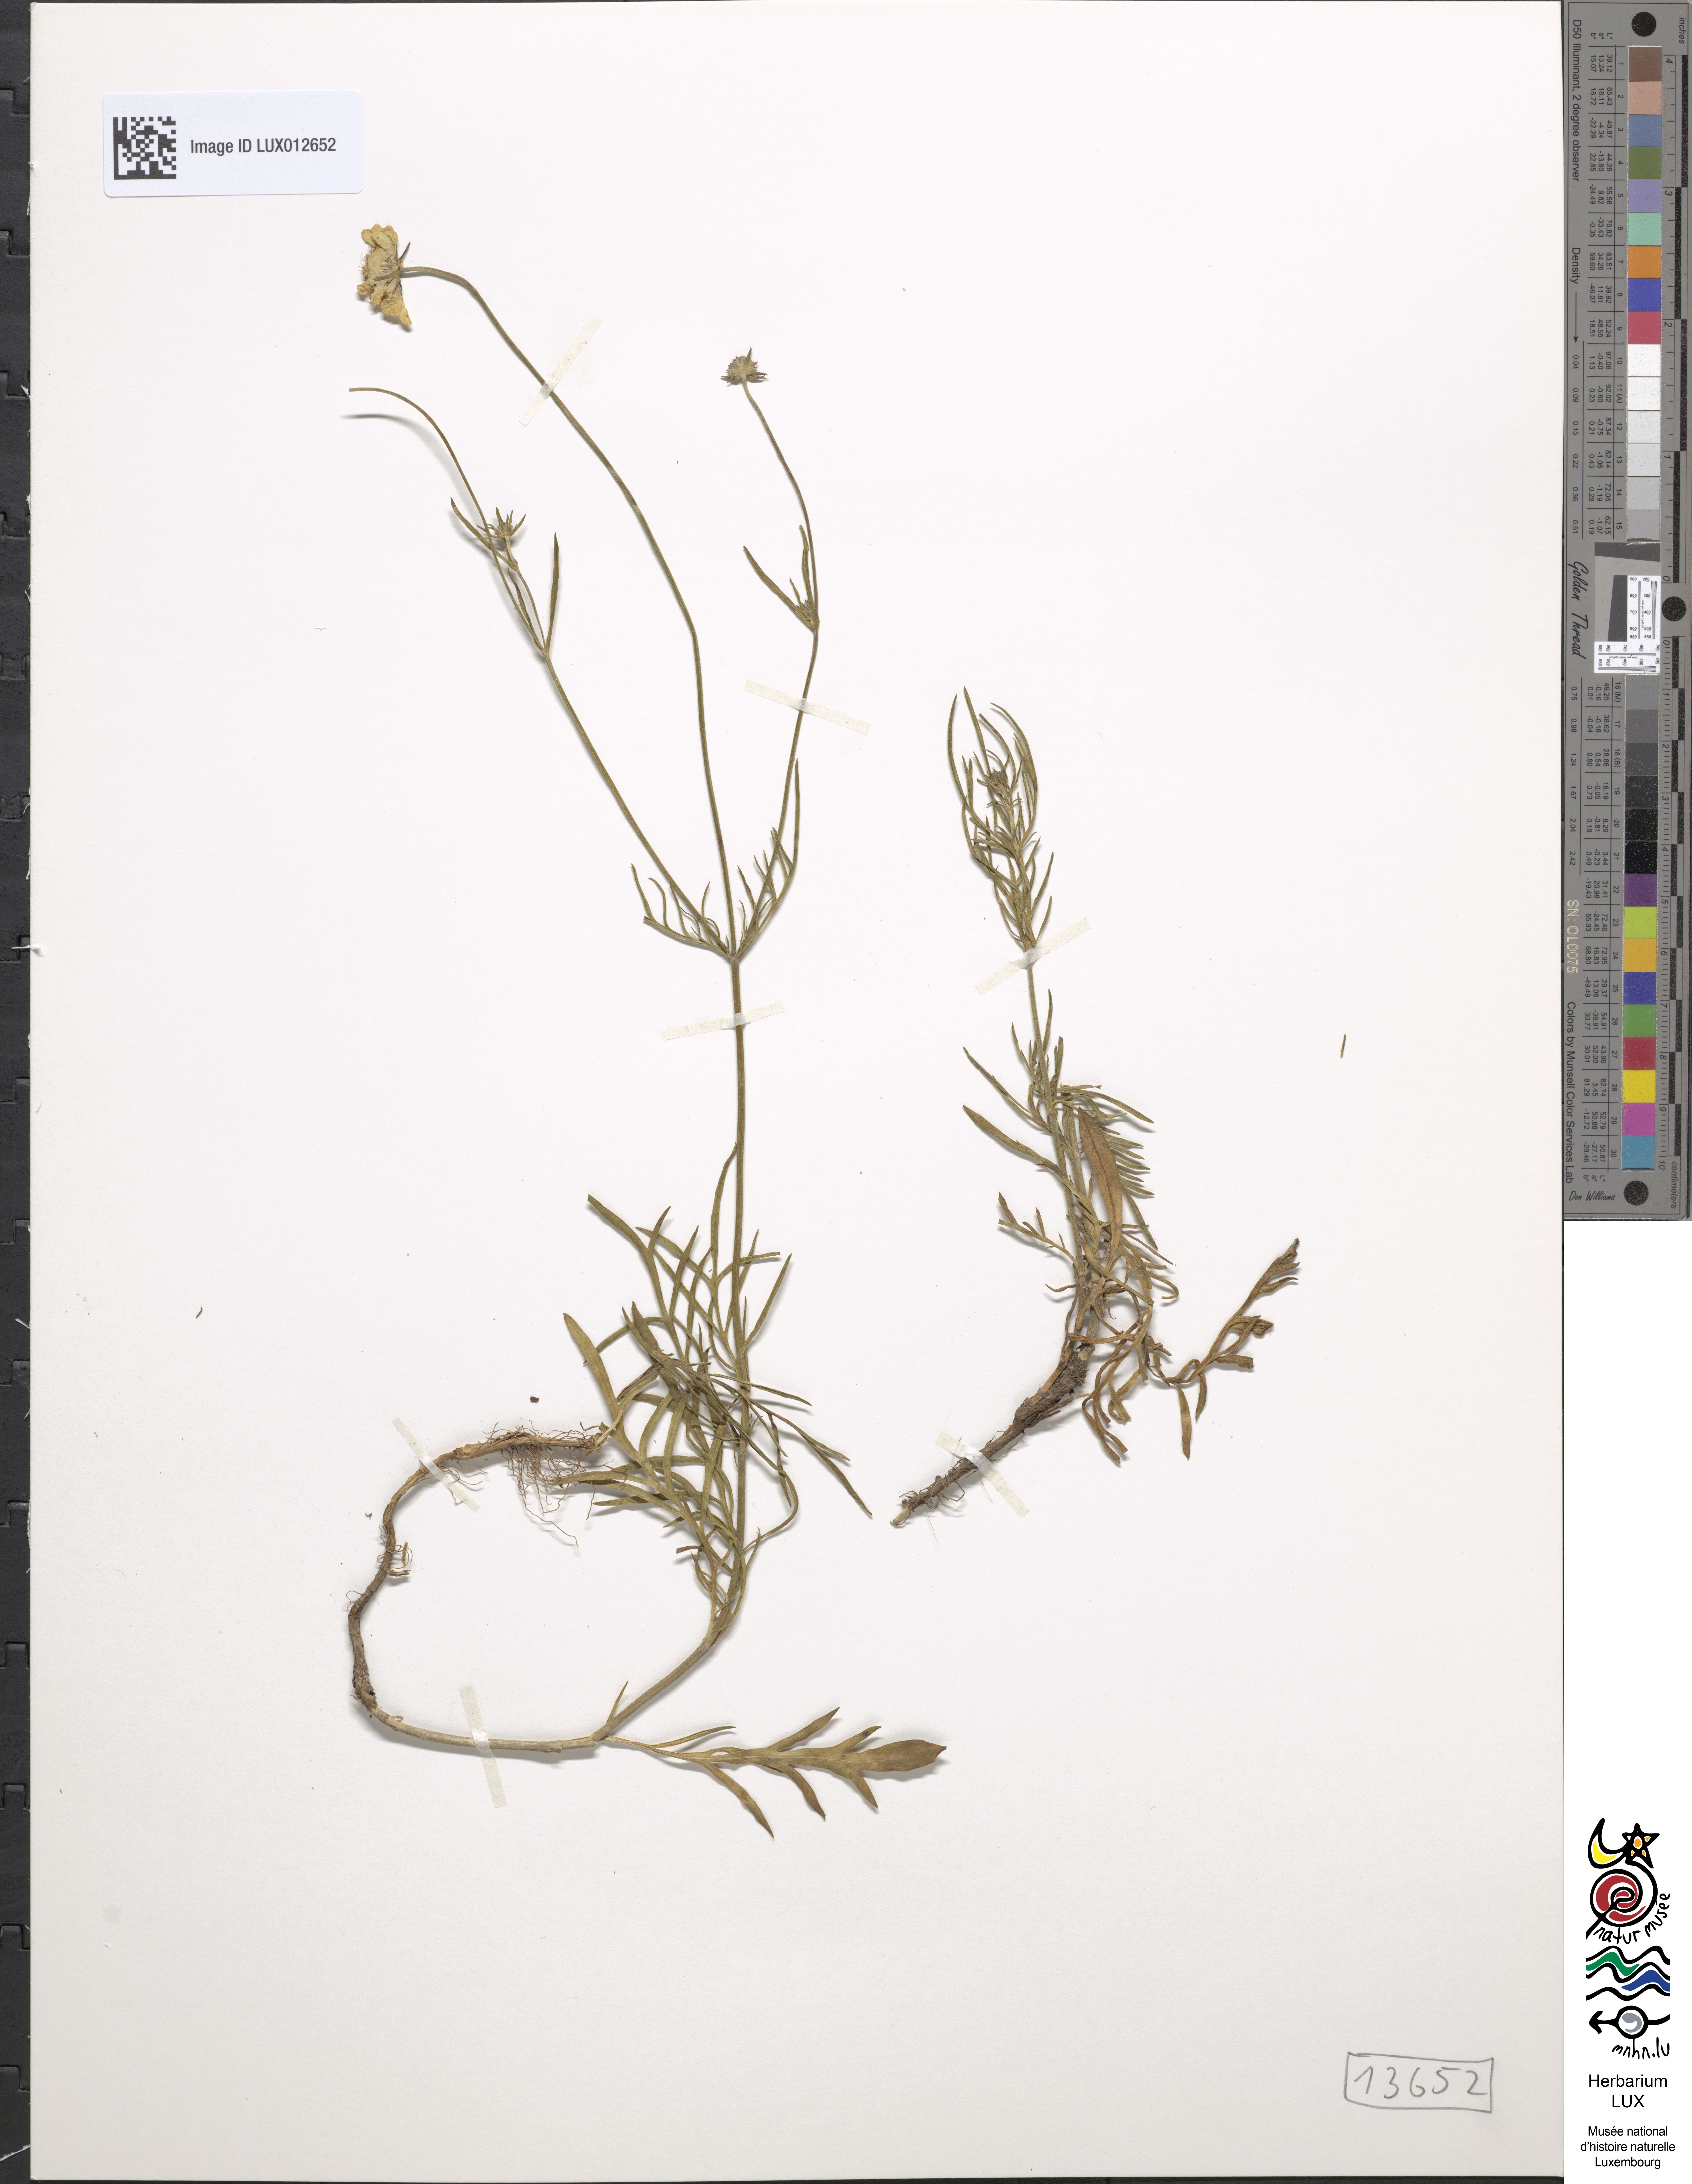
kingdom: Plantae
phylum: Tracheophyta
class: Magnoliopsida
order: Dipsacales
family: Caprifoliaceae
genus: Scabiosa
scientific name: Scabiosa canescens
